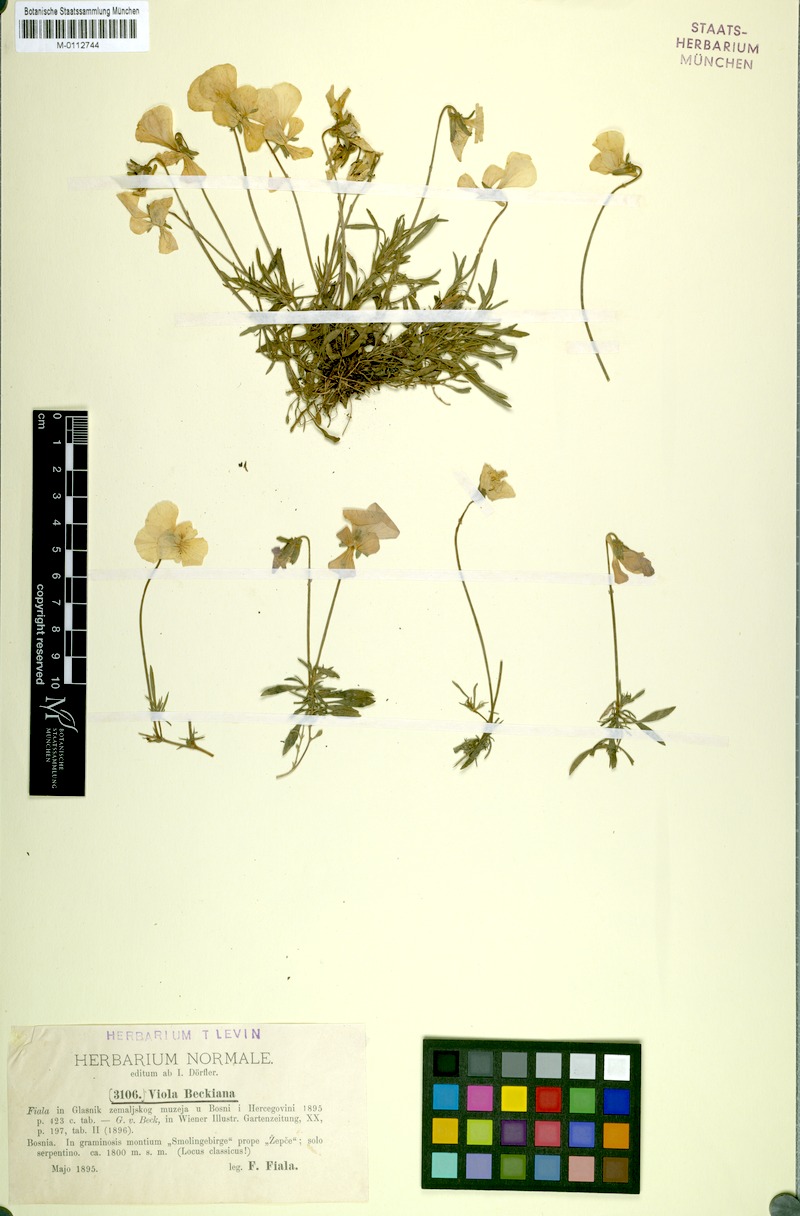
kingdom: Plantae
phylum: Tracheophyta
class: Magnoliopsida
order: Malpighiales
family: Violaceae
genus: Viola
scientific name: Viola beckiana
